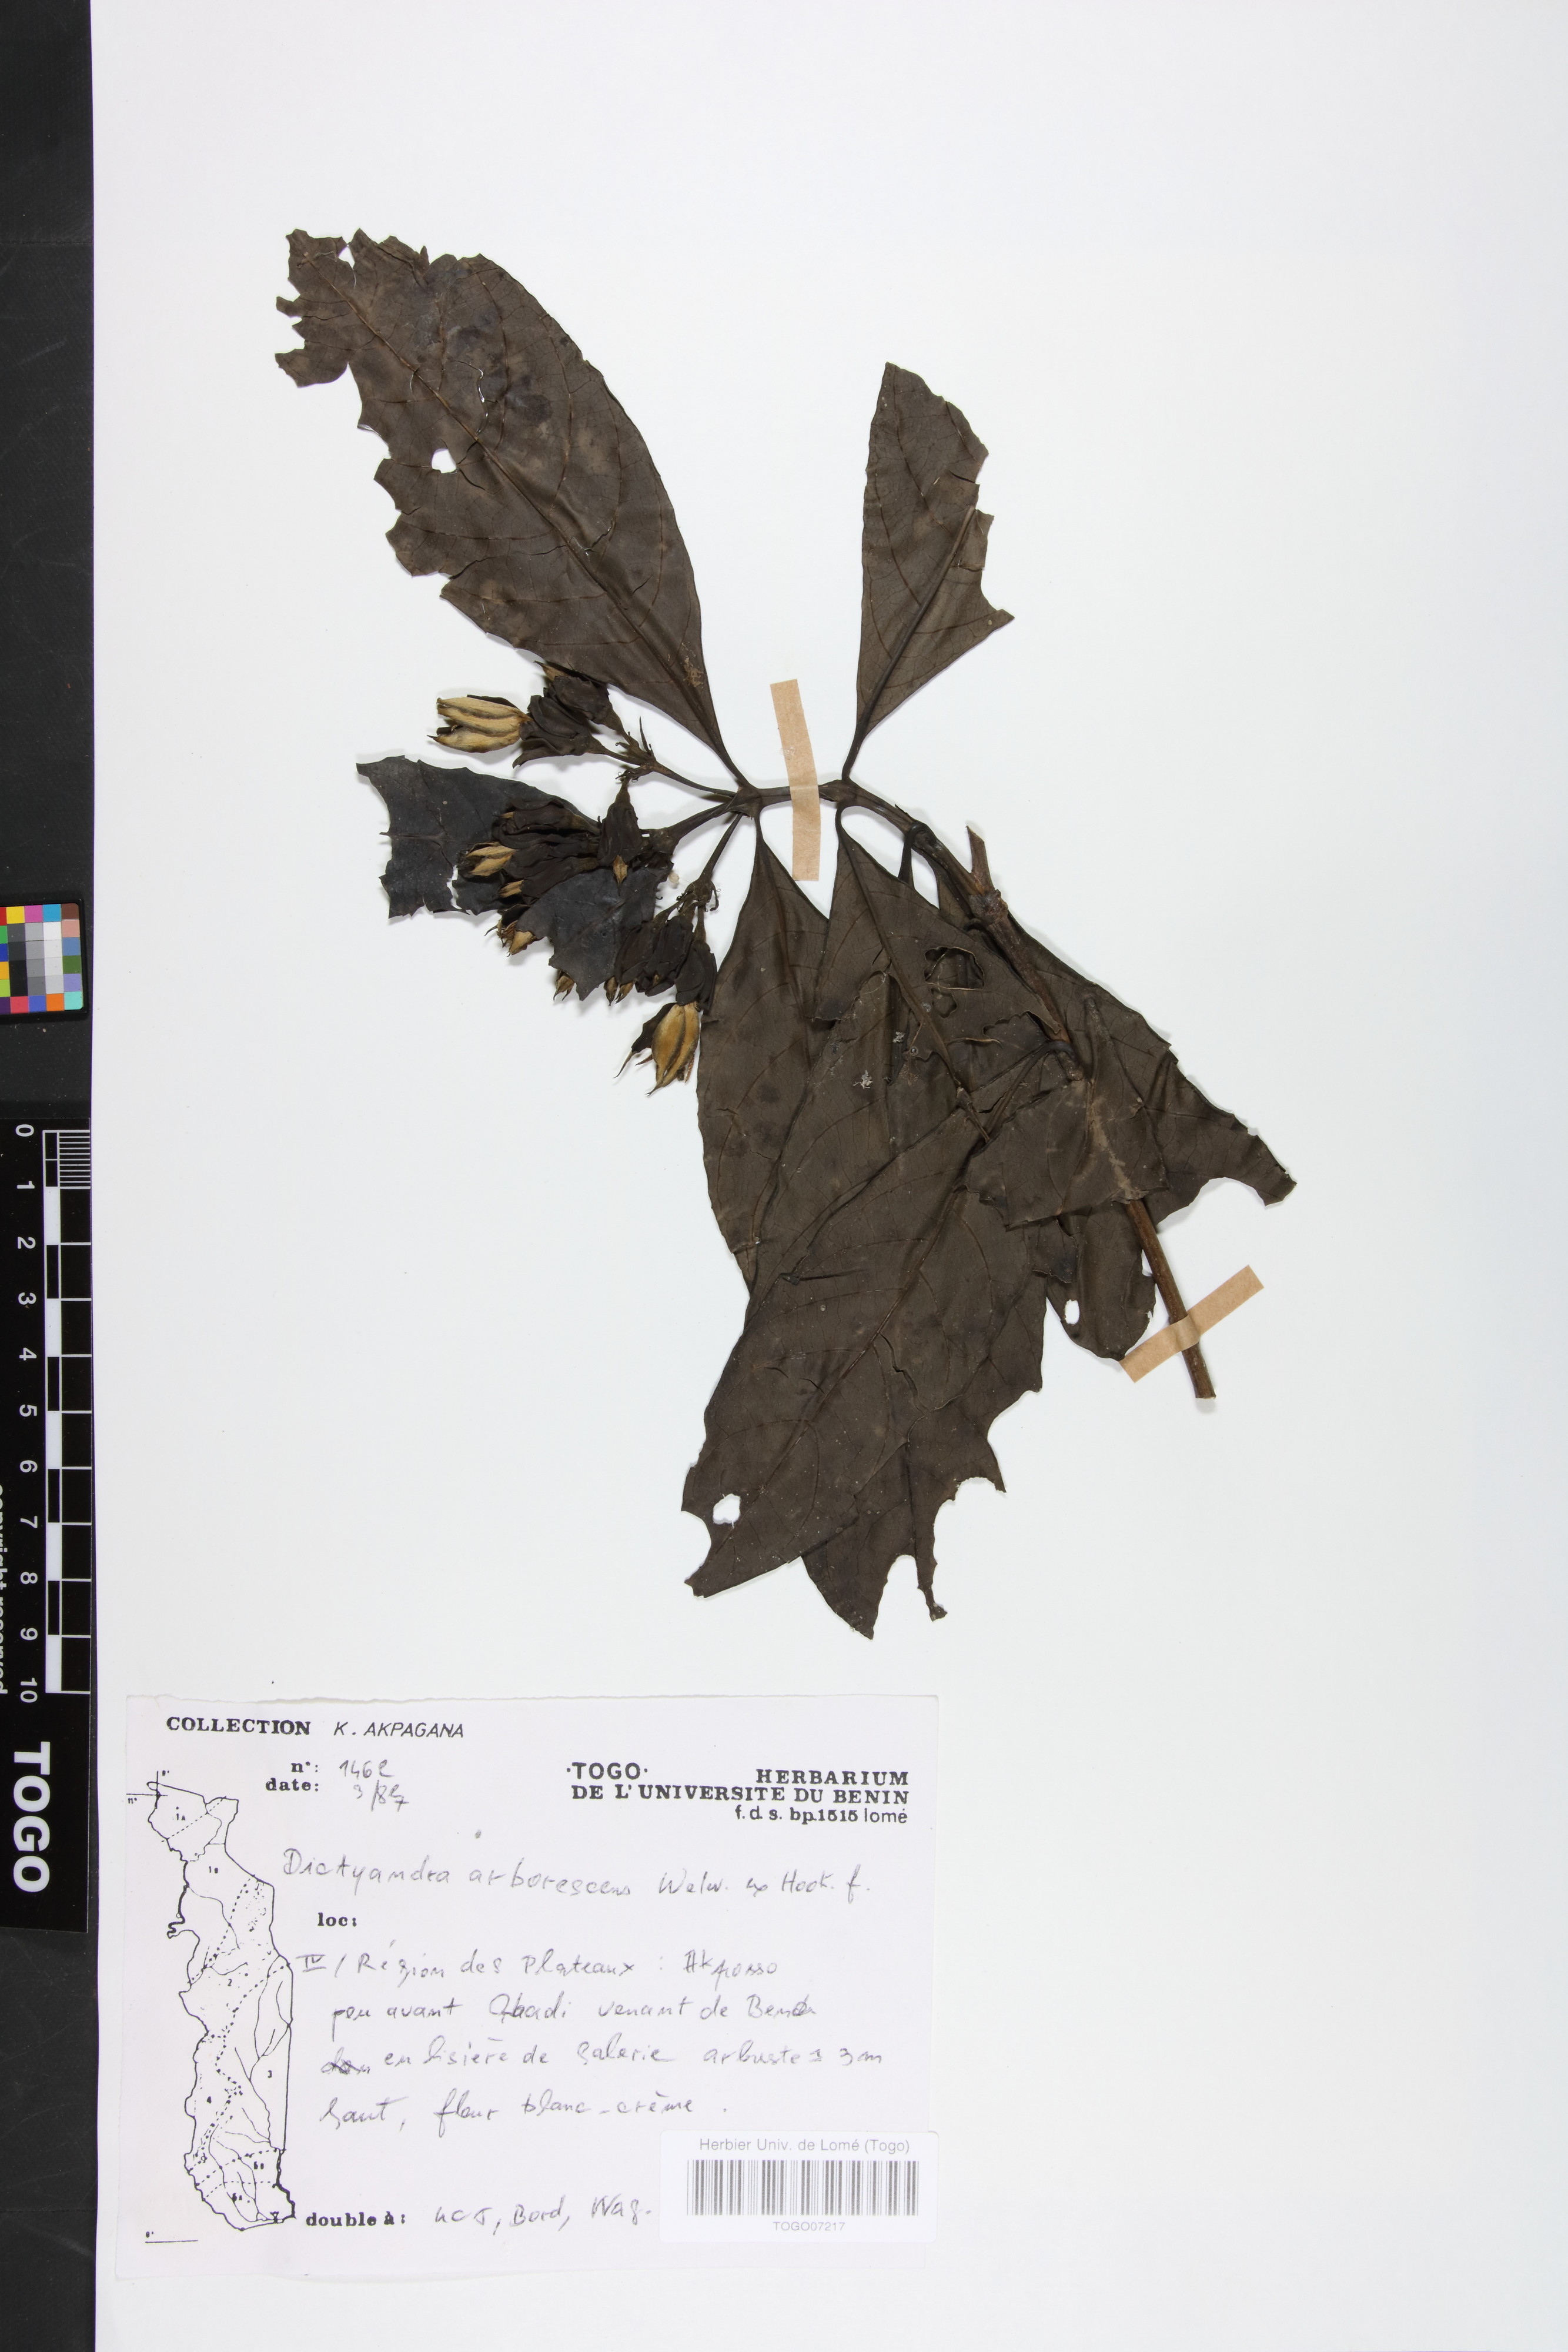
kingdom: Plantae
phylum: Tracheophyta
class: Magnoliopsida
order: Gentianales
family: Rubiaceae
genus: Leptactina
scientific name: Leptactina arborescens
